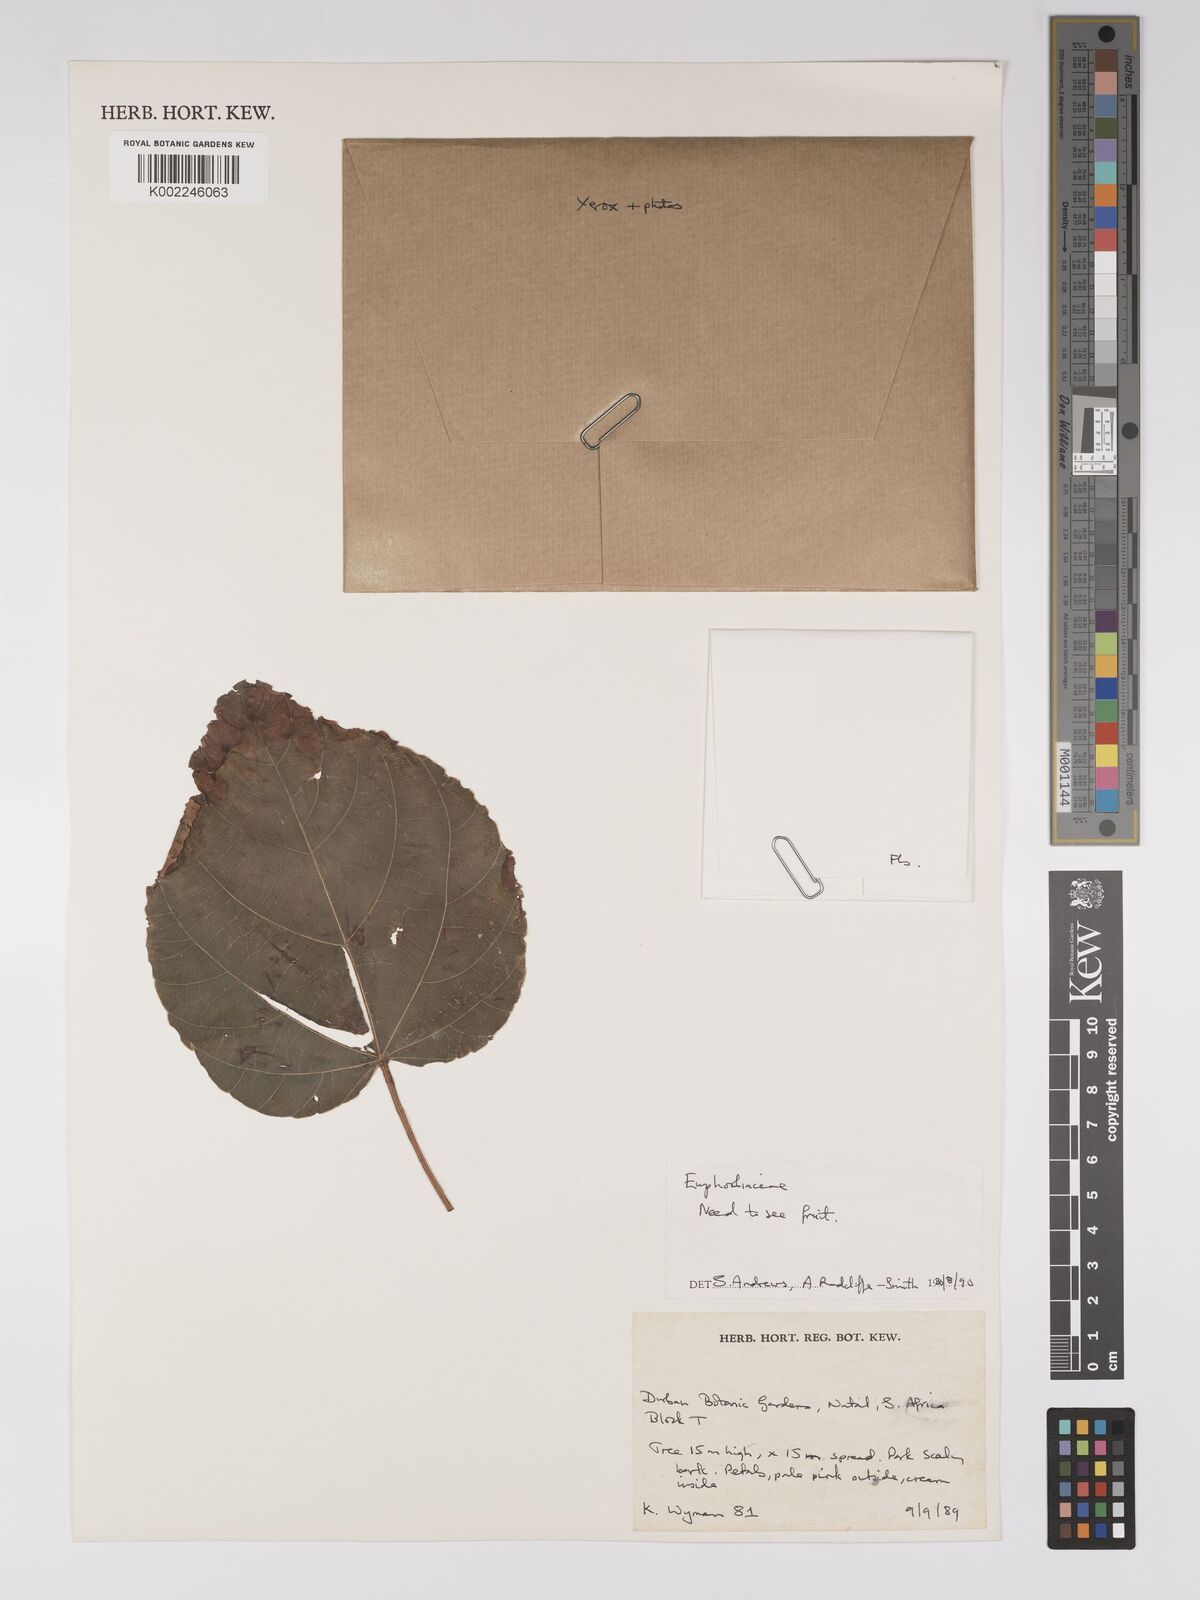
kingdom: Plantae
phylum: Tracheophyta
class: Magnoliopsida
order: Malpighiales
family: Euphorbiaceae
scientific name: Euphorbiaceae
